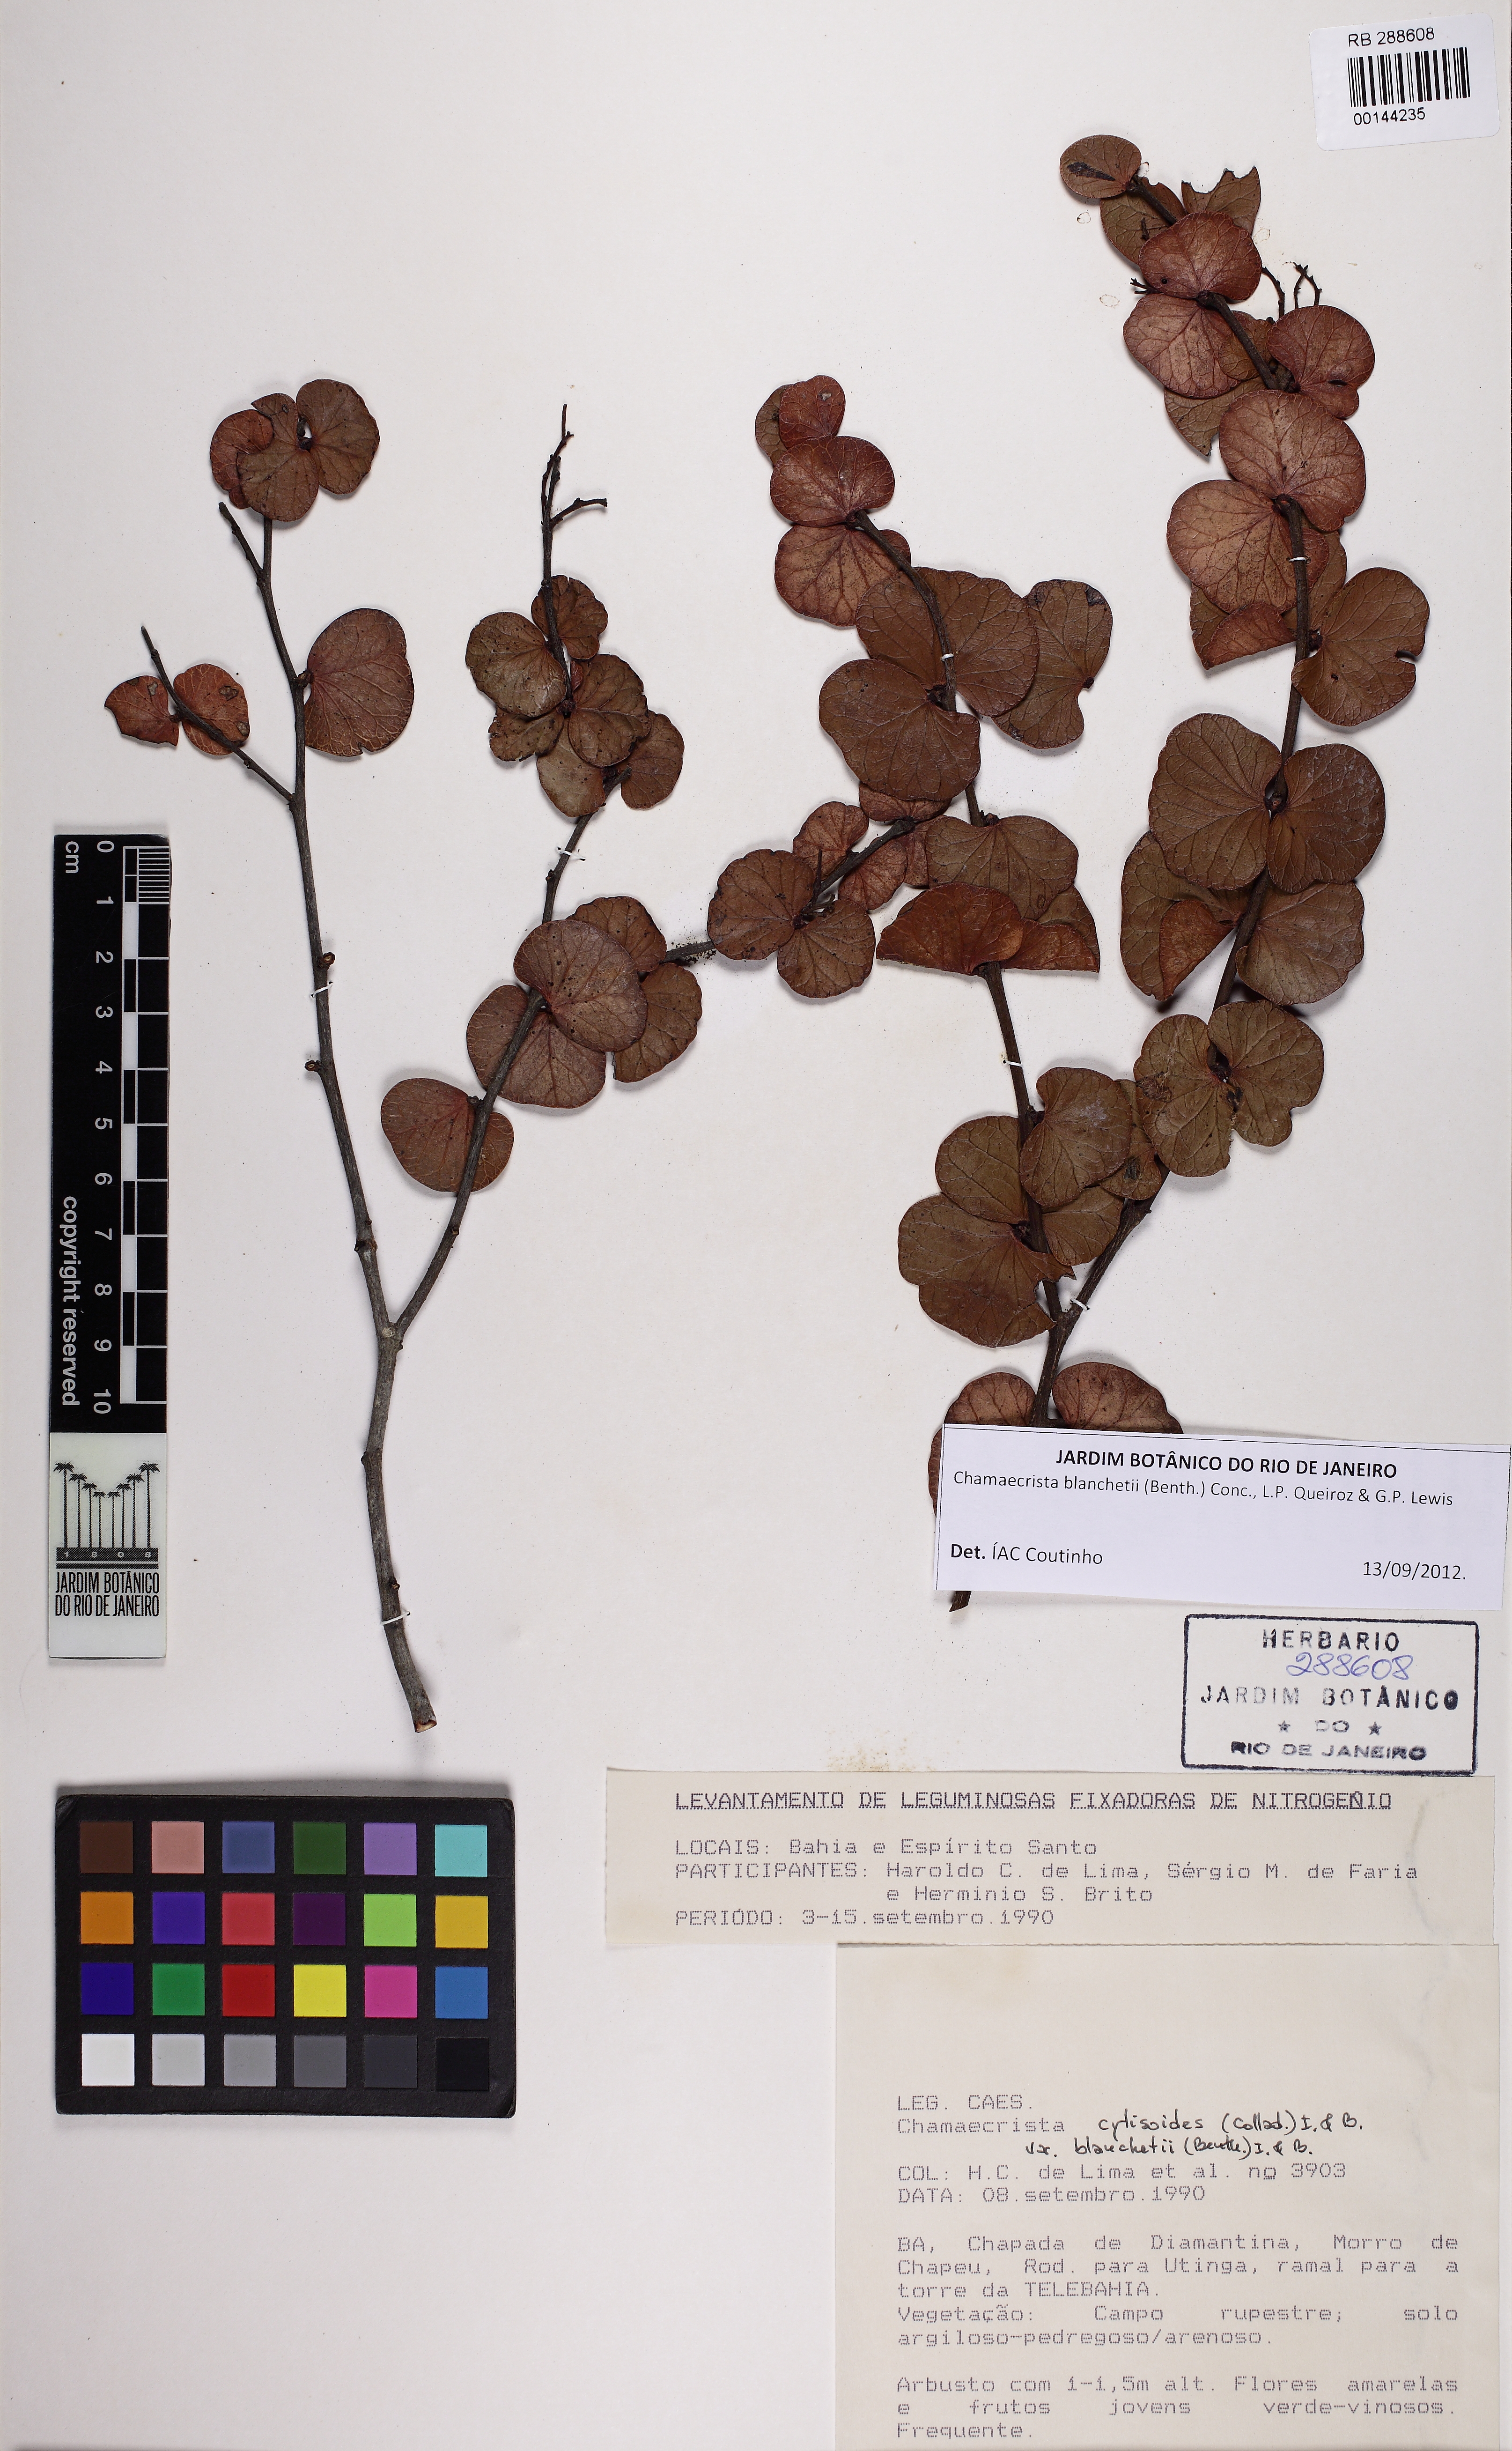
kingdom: Plantae
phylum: Tracheophyta
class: Magnoliopsida
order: Fabales
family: Fabaceae
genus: Chamaecrista
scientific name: Chamaecrista blanchetii
